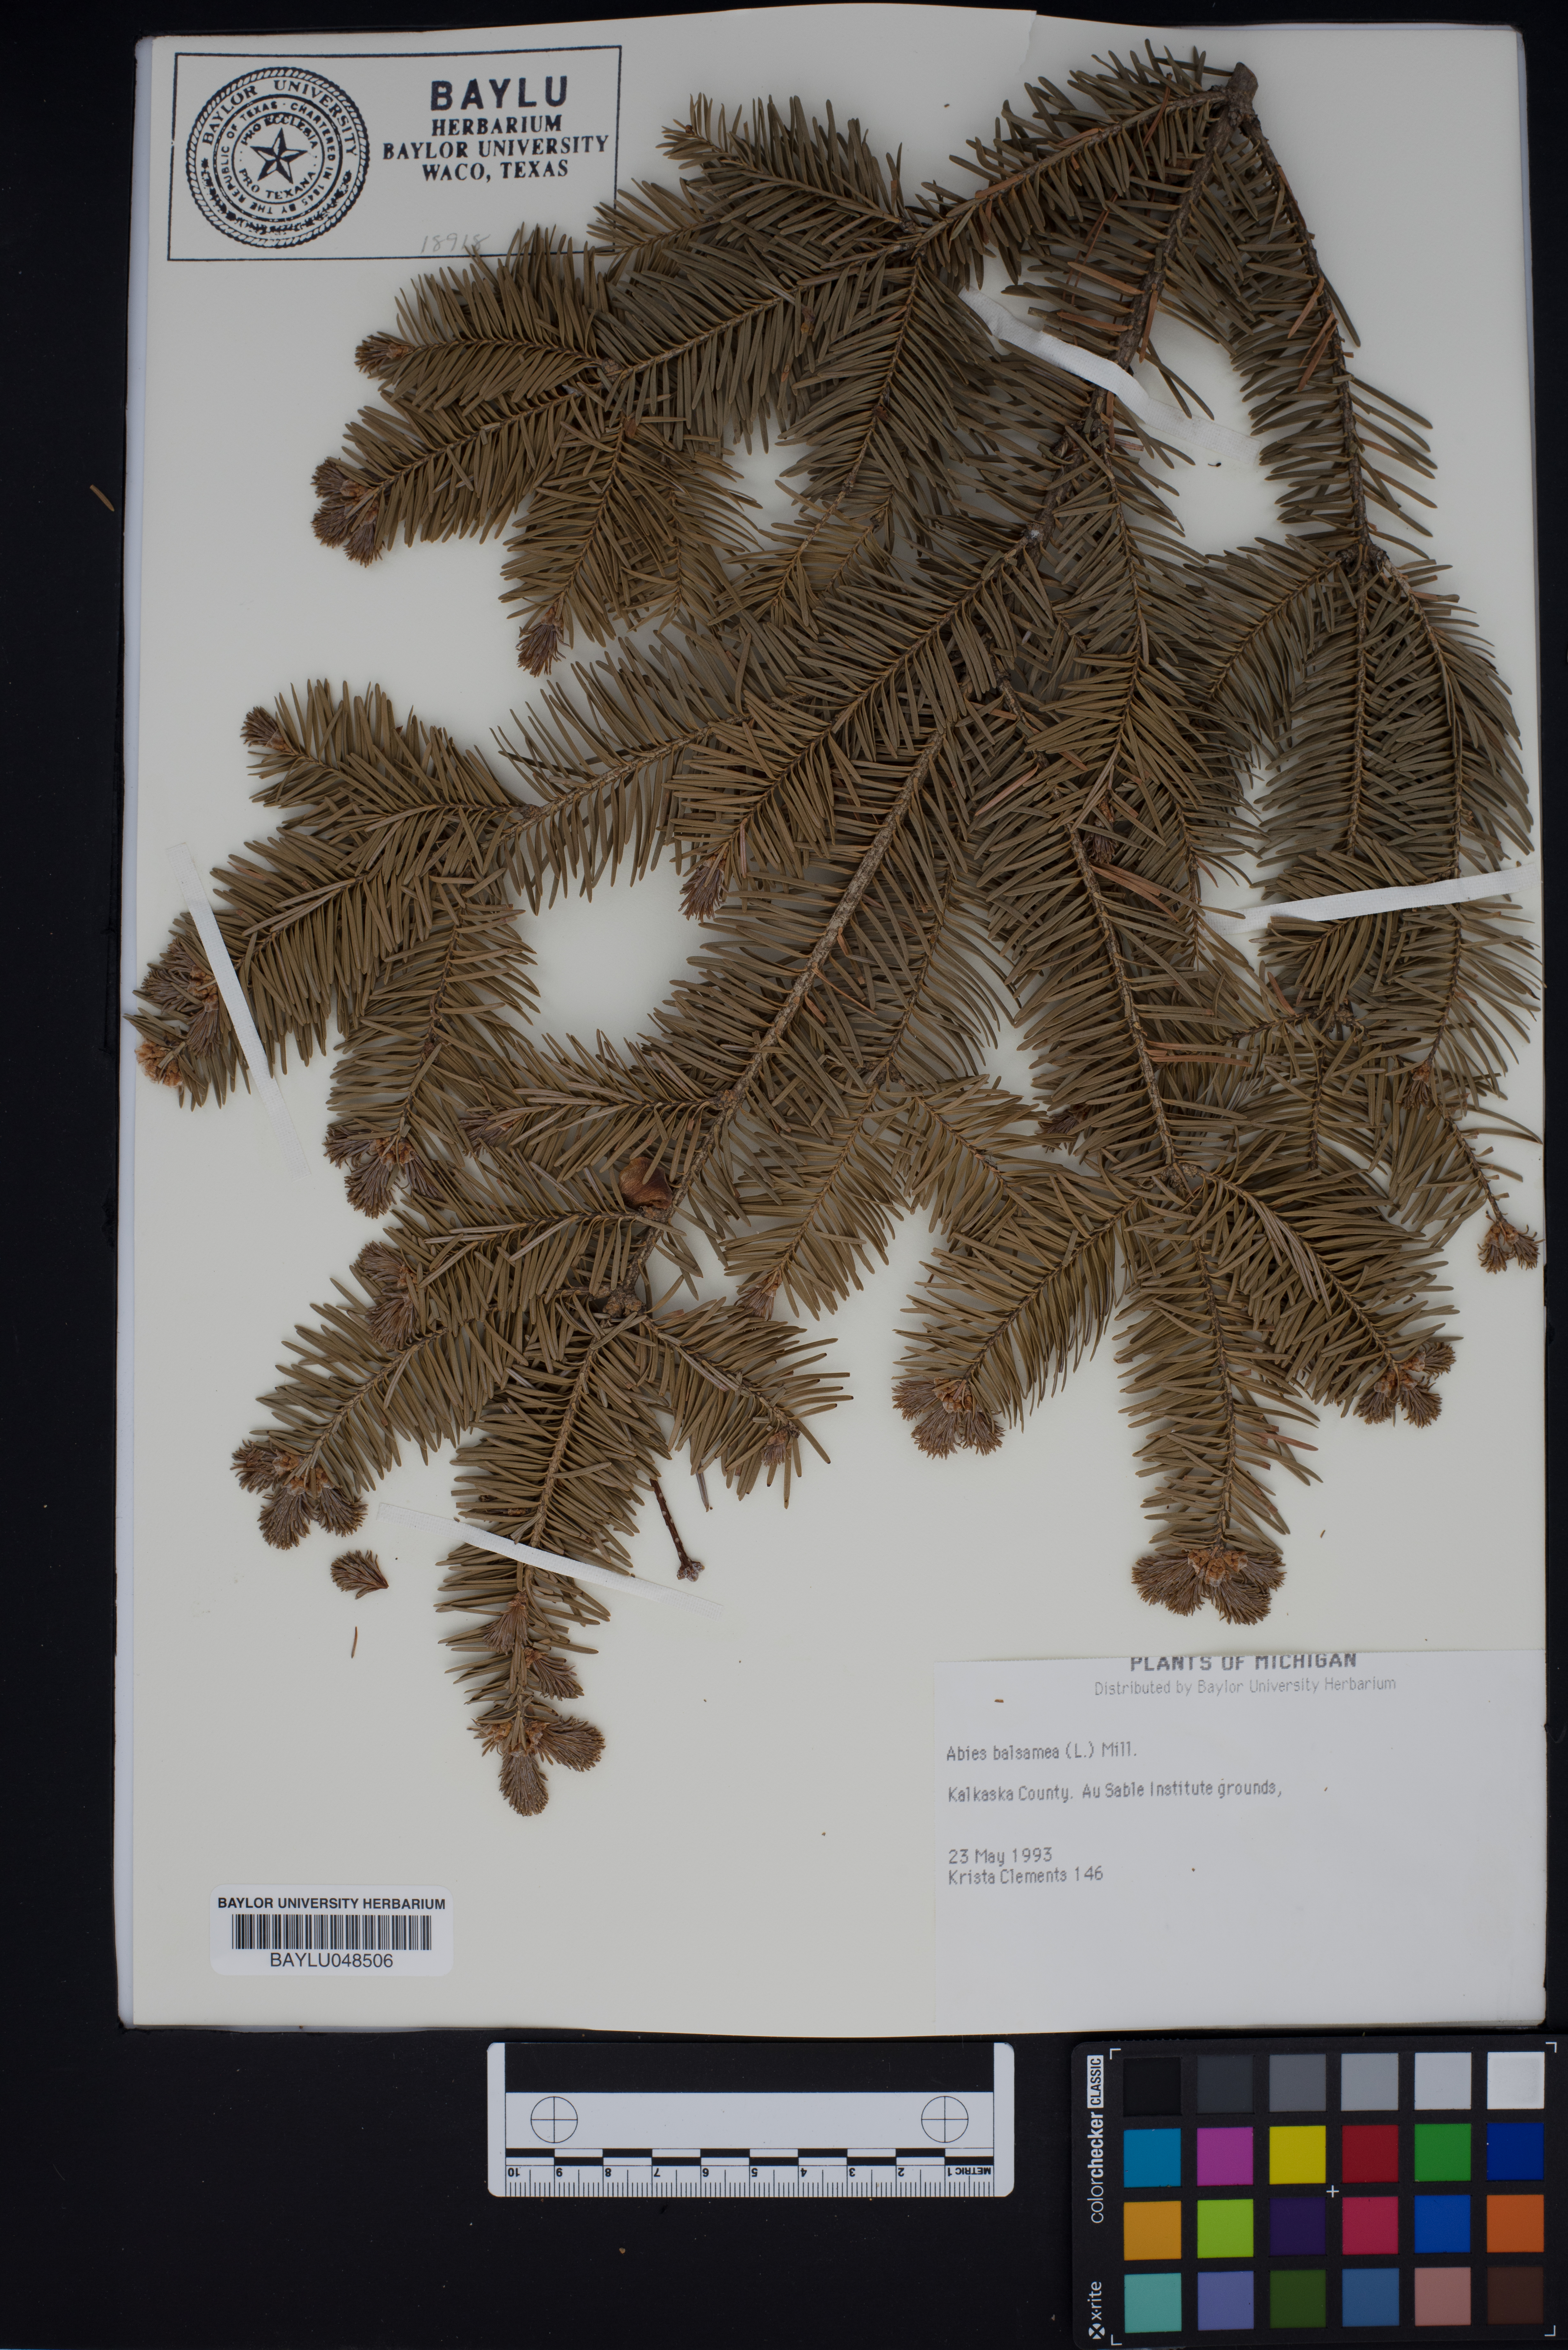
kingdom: Plantae
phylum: Tracheophyta
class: Pinopsida
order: Pinales
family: Pinaceae
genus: Abies
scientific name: Abies balsamea
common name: Balsam fir
